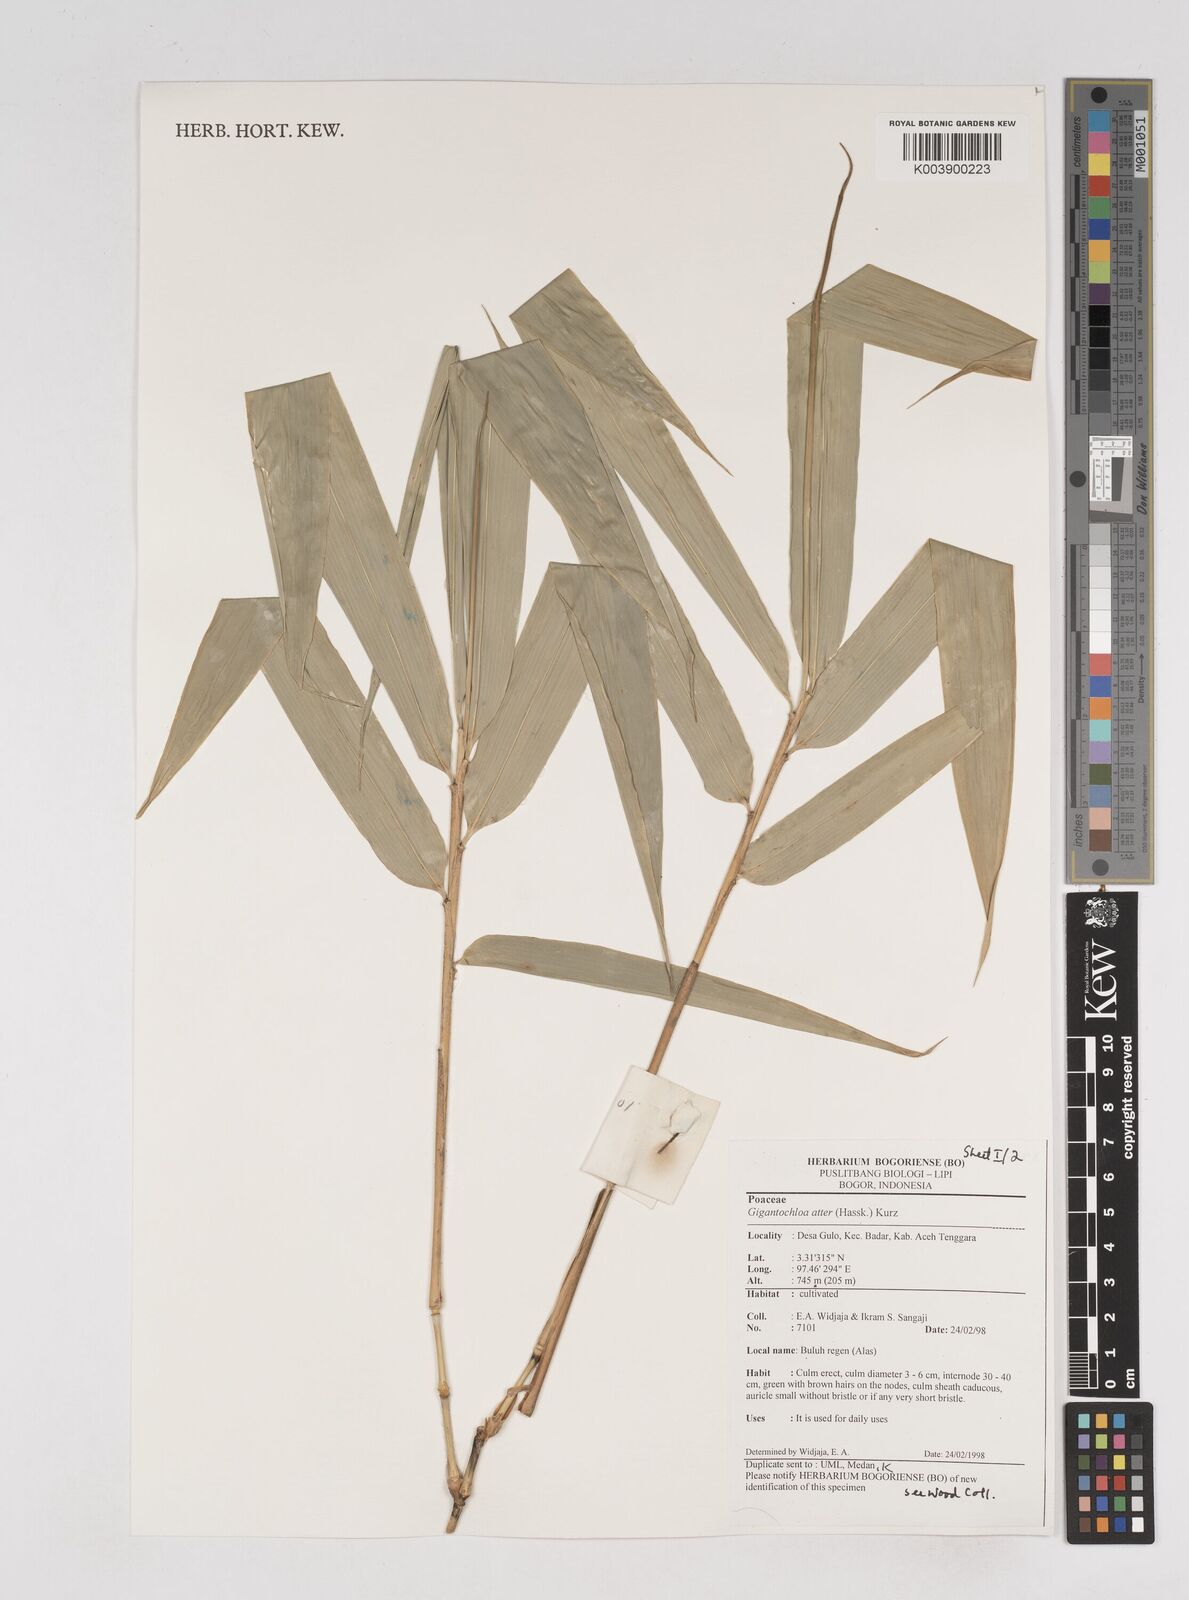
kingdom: Plantae
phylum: Tracheophyta
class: Liliopsida
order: Poales
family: Poaceae
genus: Gigantochloa
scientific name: Gigantochloa atter
